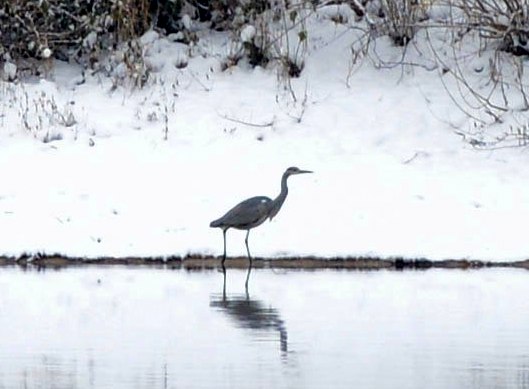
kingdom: Animalia
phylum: Chordata
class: Aves
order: Pelecaniformes
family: Ardeidae
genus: Ardea
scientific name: Ardea cinerea
